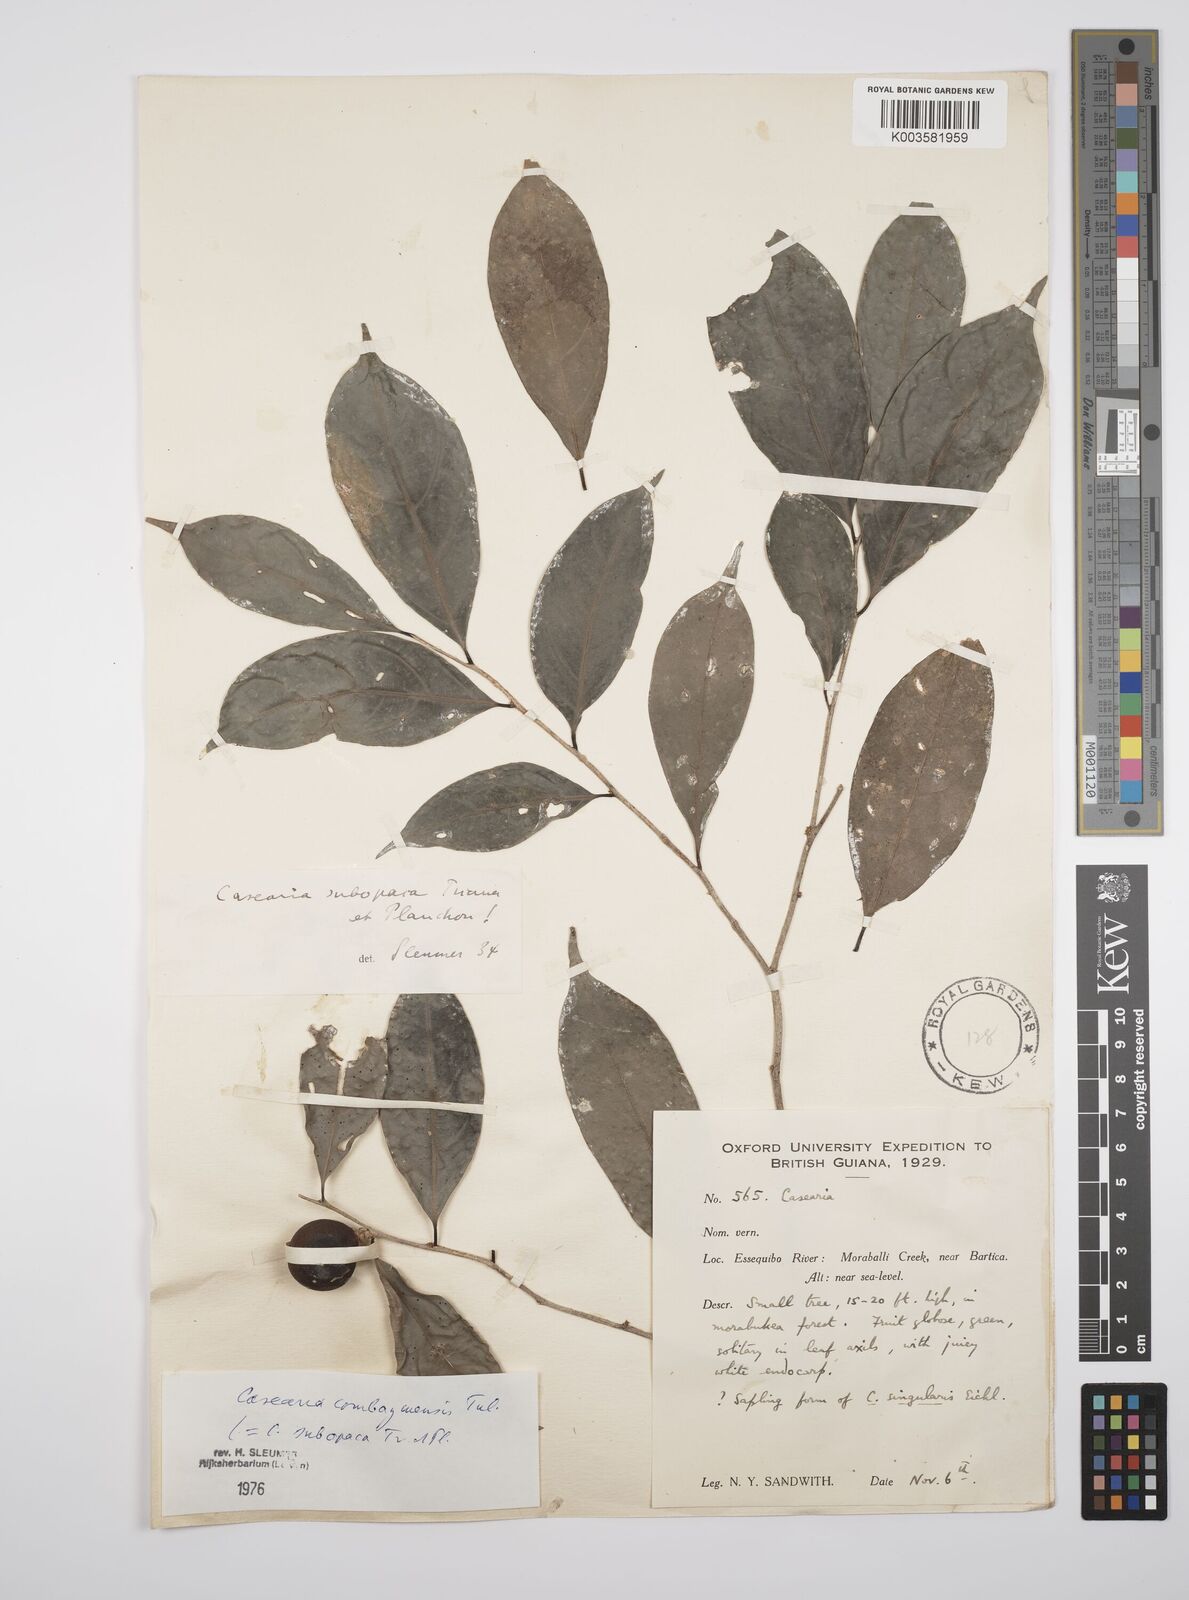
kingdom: Plantae
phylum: Tracheophyta
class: Magnoliopsida
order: Malpighiales
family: Salicaceae
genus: Casearia
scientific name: Casearia combaymensis
